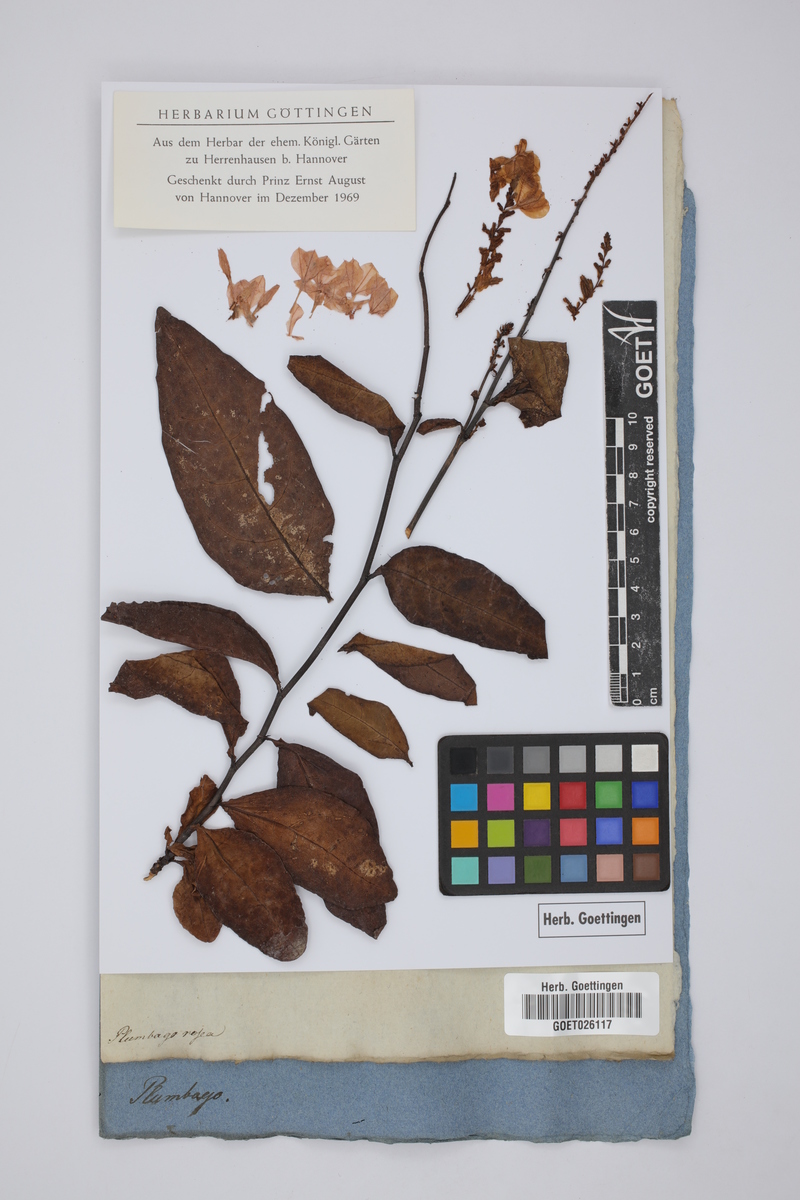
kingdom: Plantae
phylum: Tracheophyta
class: Magnoliopsida
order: Caryophyllales
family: Plumbaginaceae
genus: Plumbago
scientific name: Plumbago indica
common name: Indian leadwort
